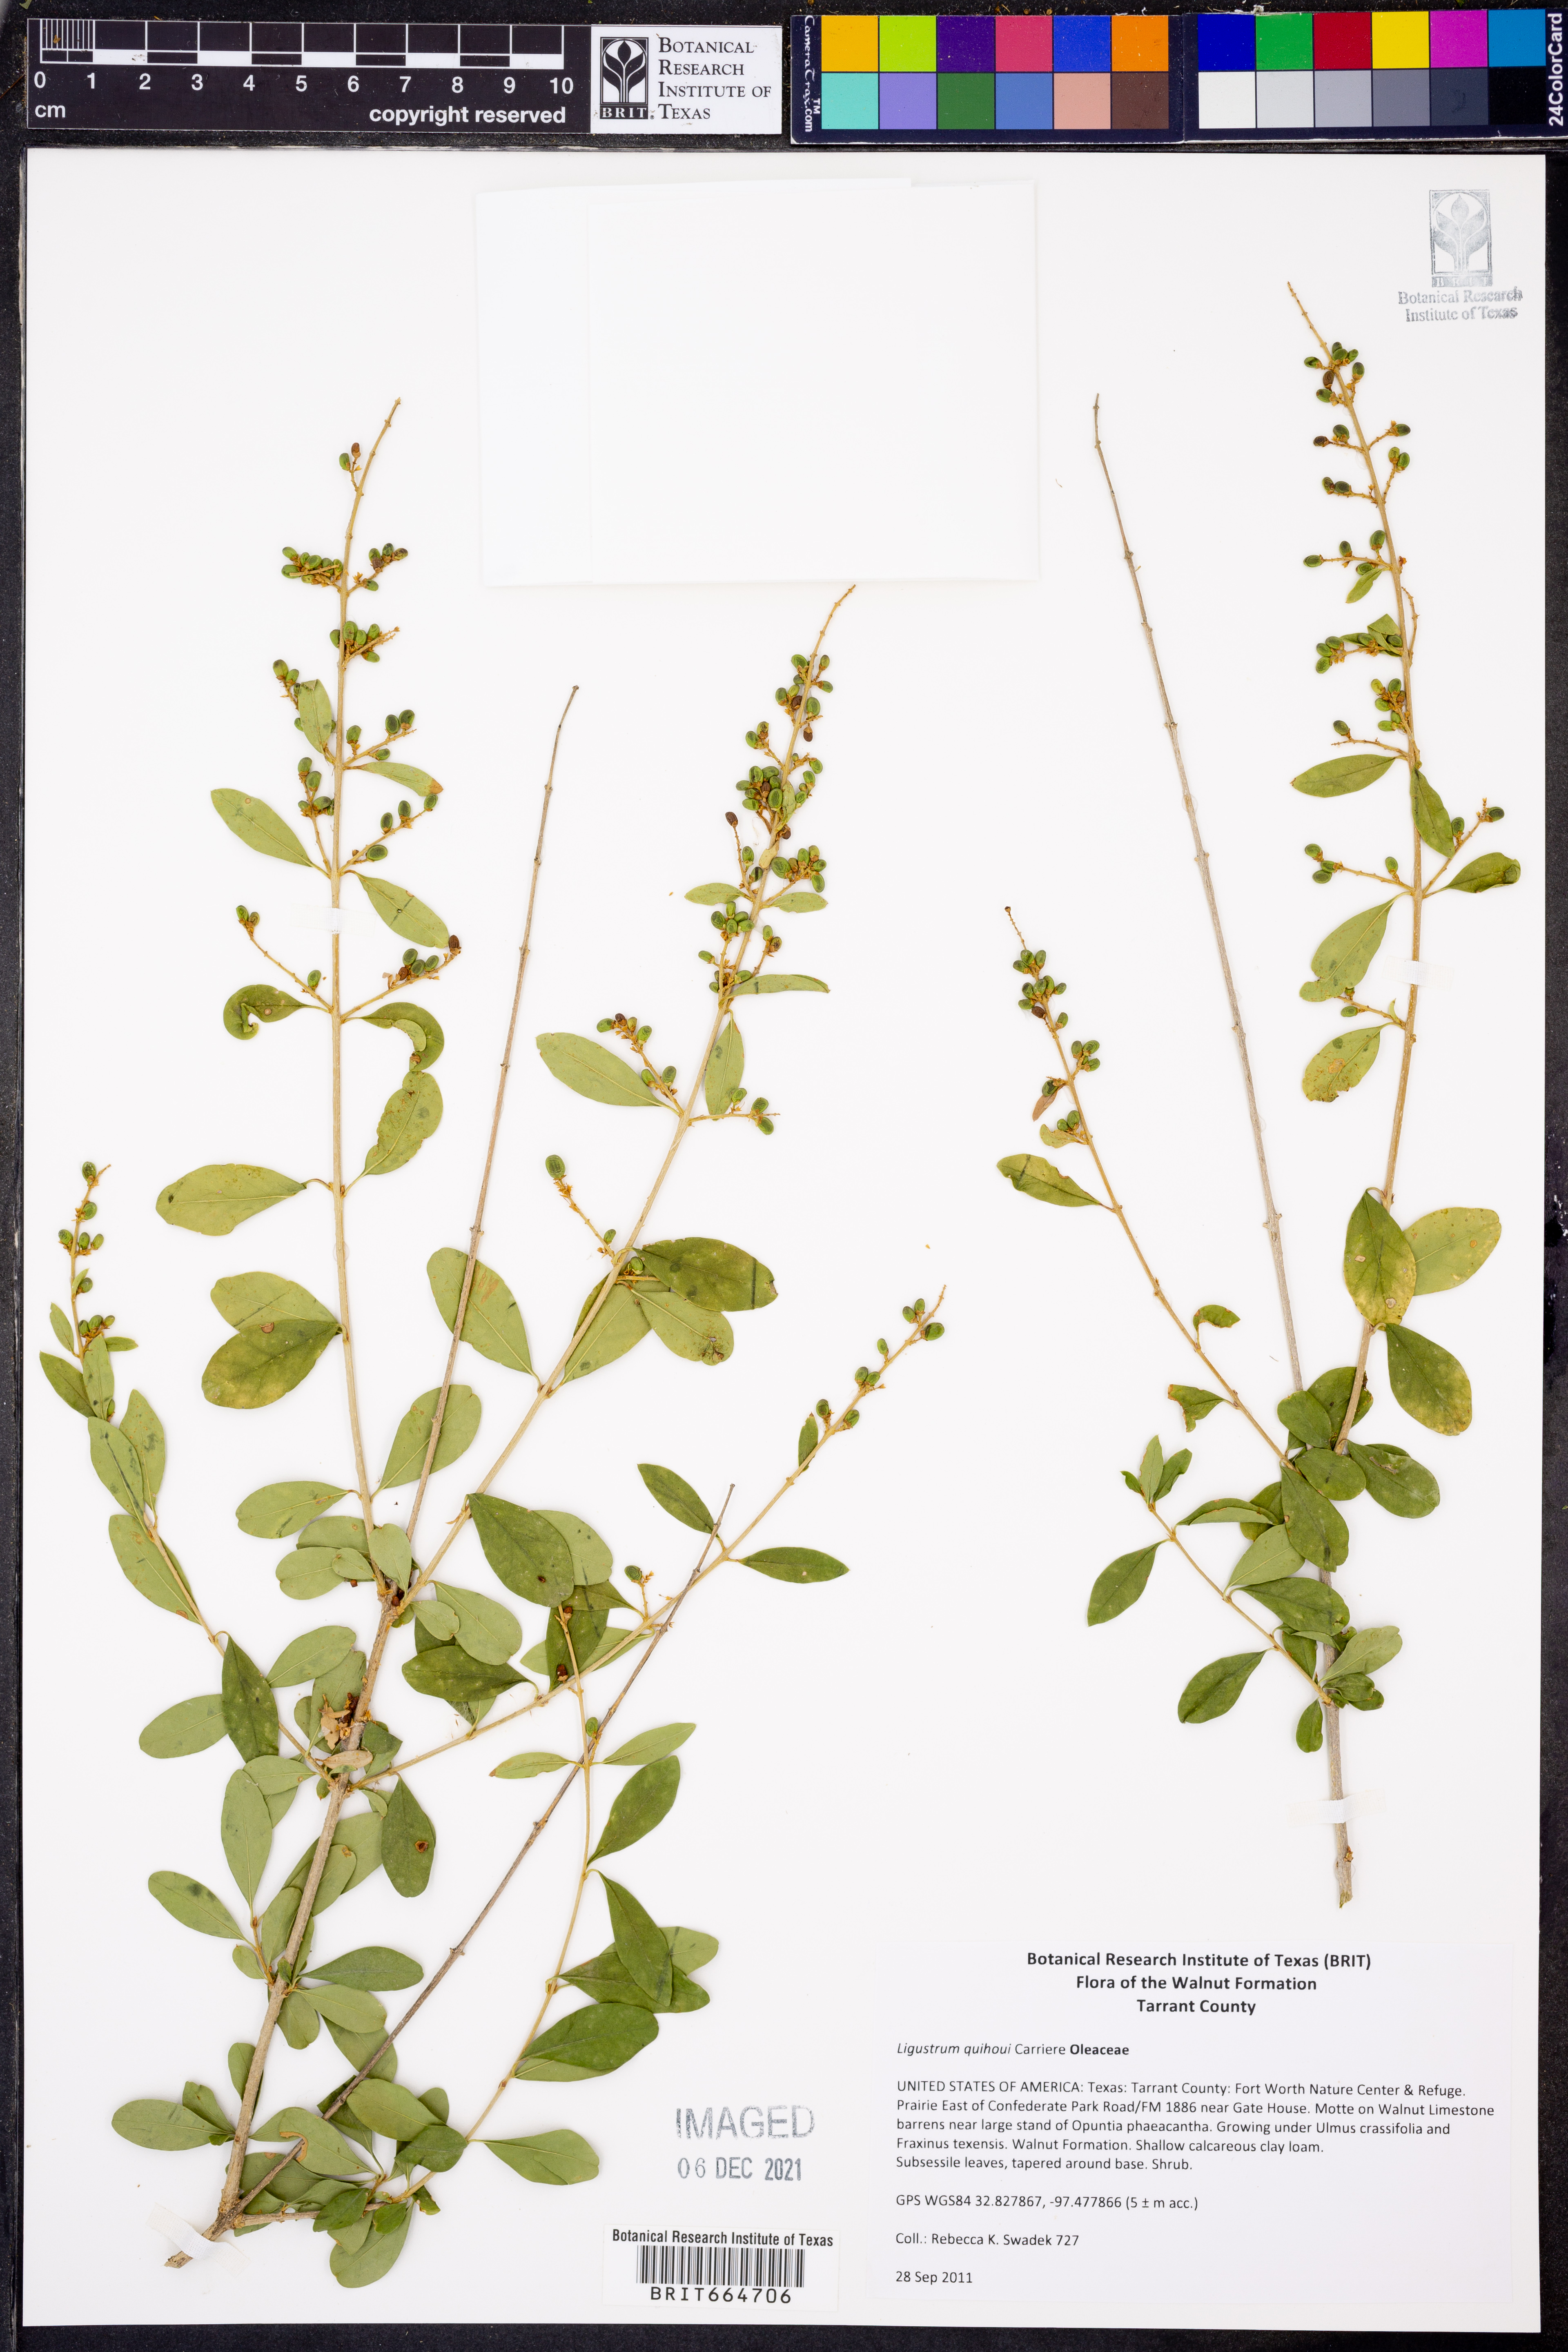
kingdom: Plantae
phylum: Tracheophyta
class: Magnoliopsida
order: Lamiales
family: Oleaceae
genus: Ligustrum
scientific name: Ligustrum quihoui
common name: Waxyleaf privet
